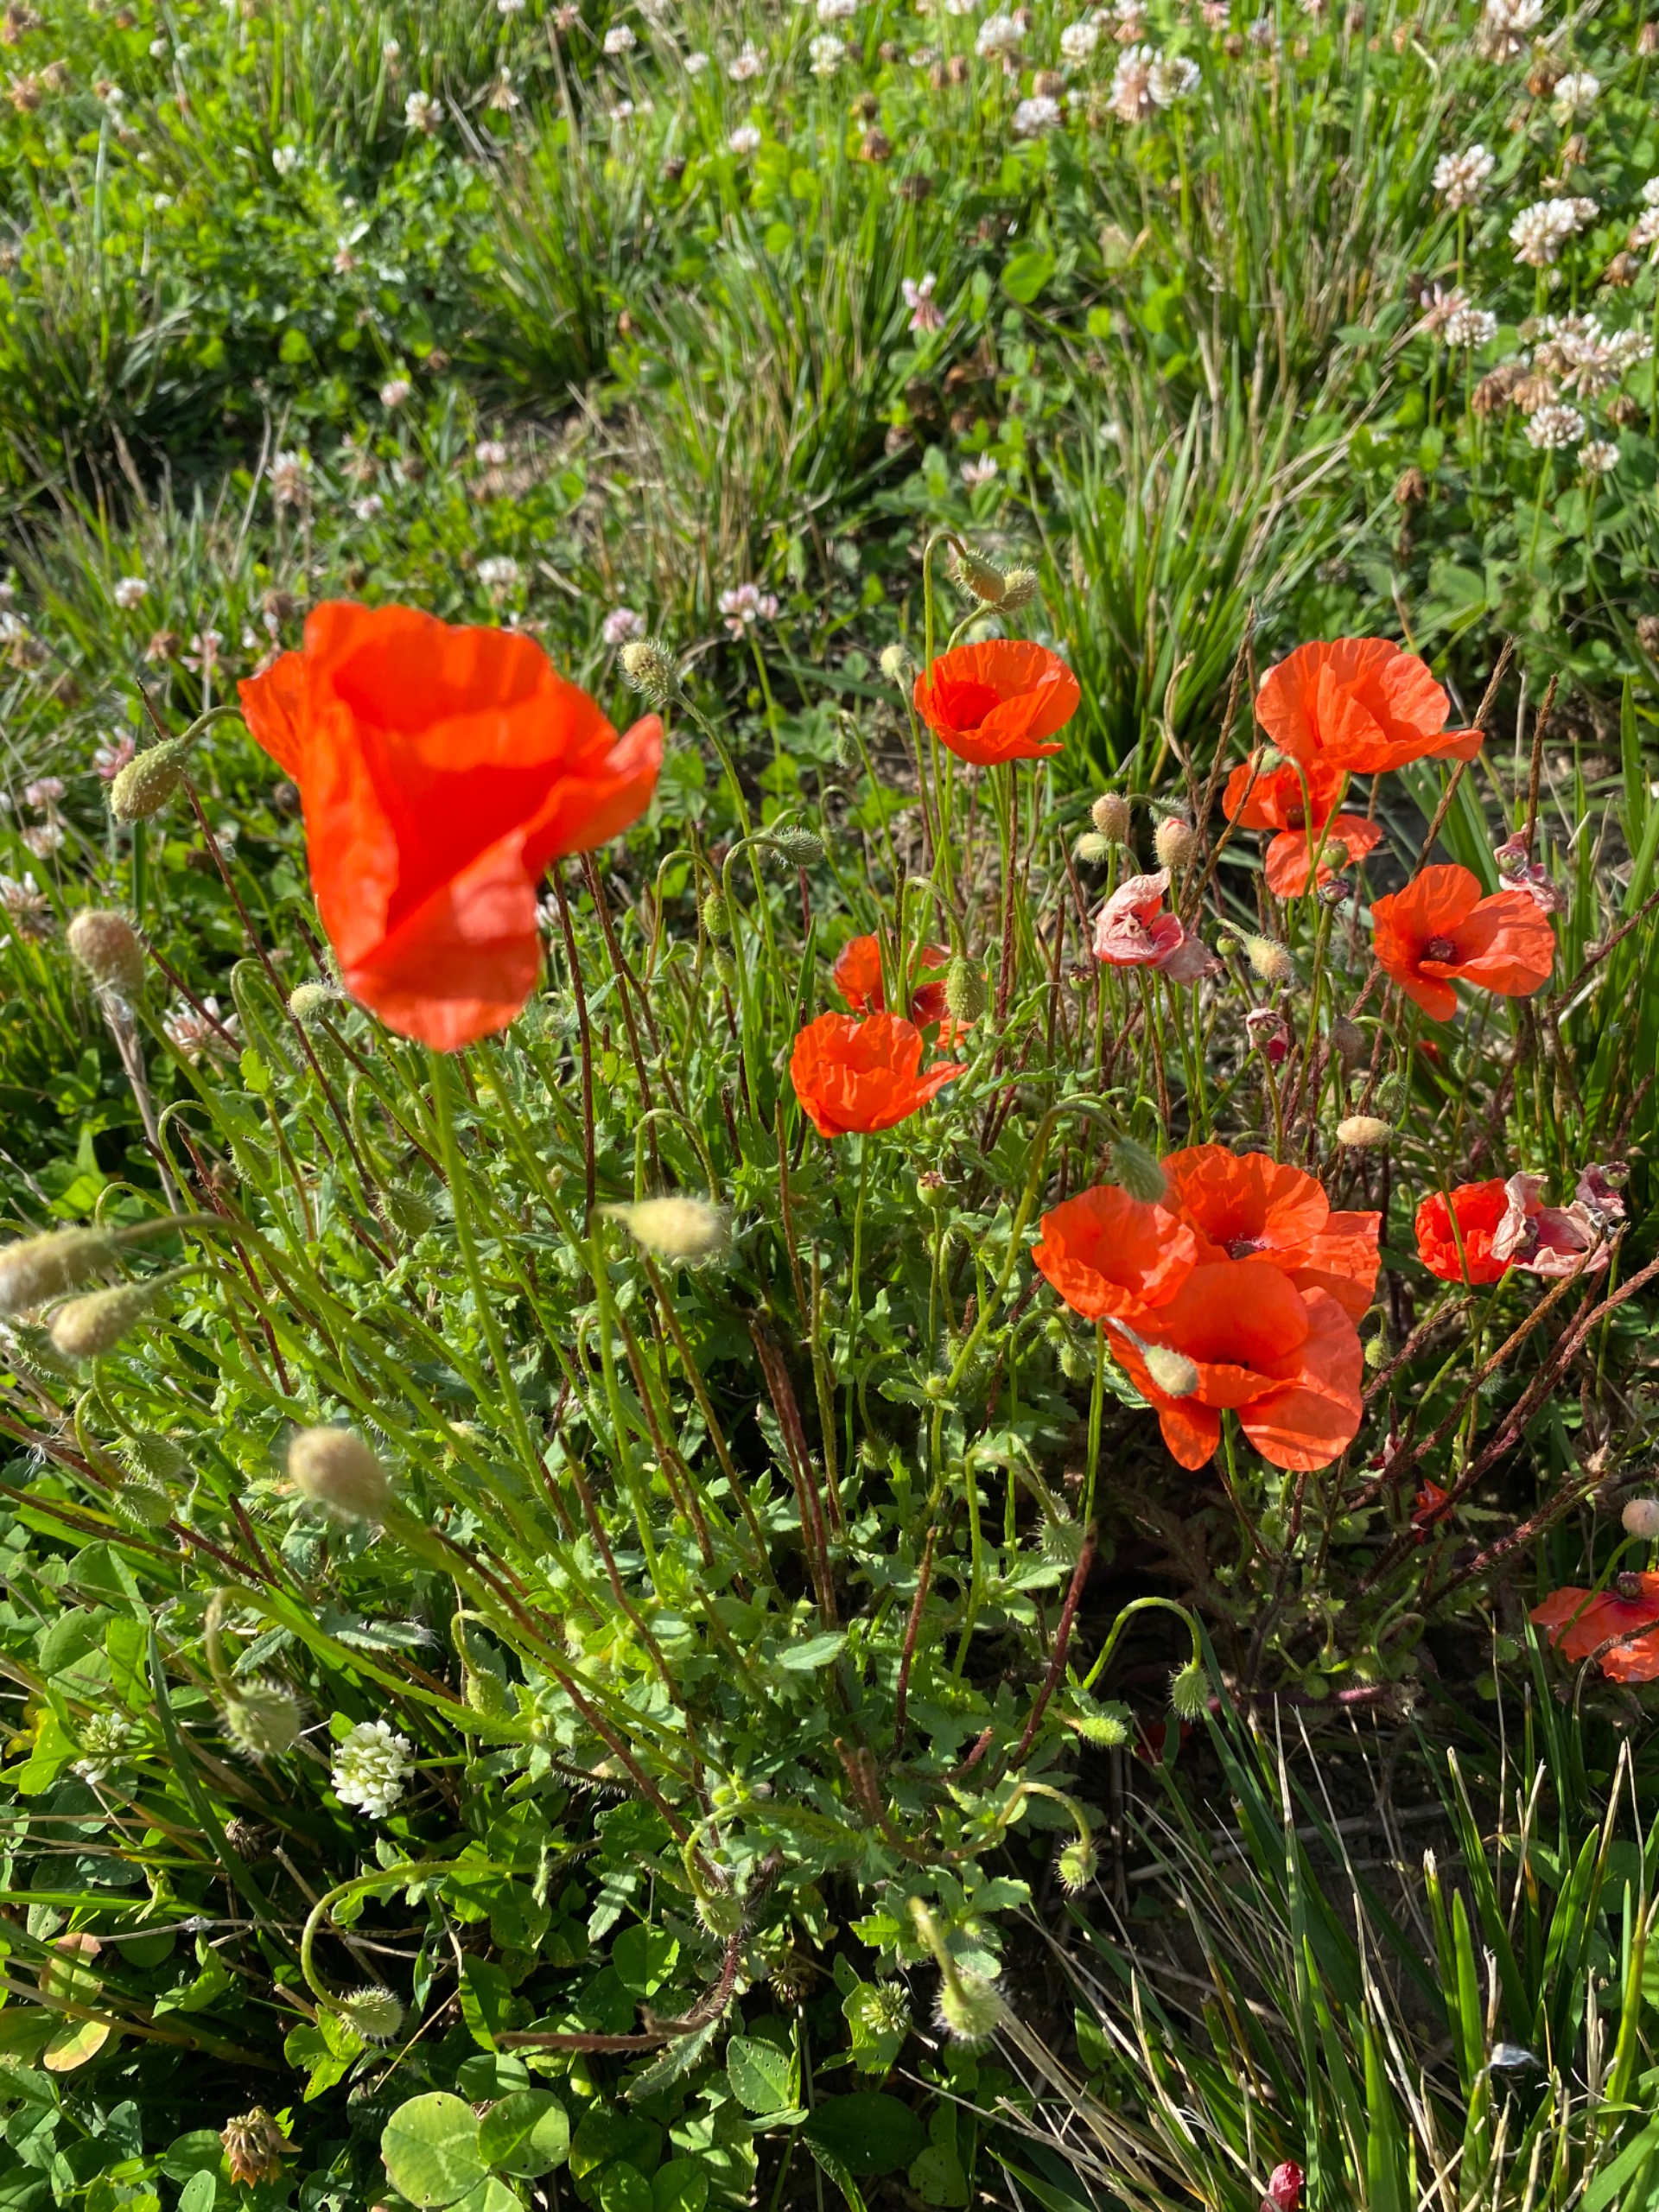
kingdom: Plantae
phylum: Tracheophyta
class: Magnoliopsida
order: Ranunculales
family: Papaveraceae
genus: Papaver
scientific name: Papaver rhoeas
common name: Korn-valmue
